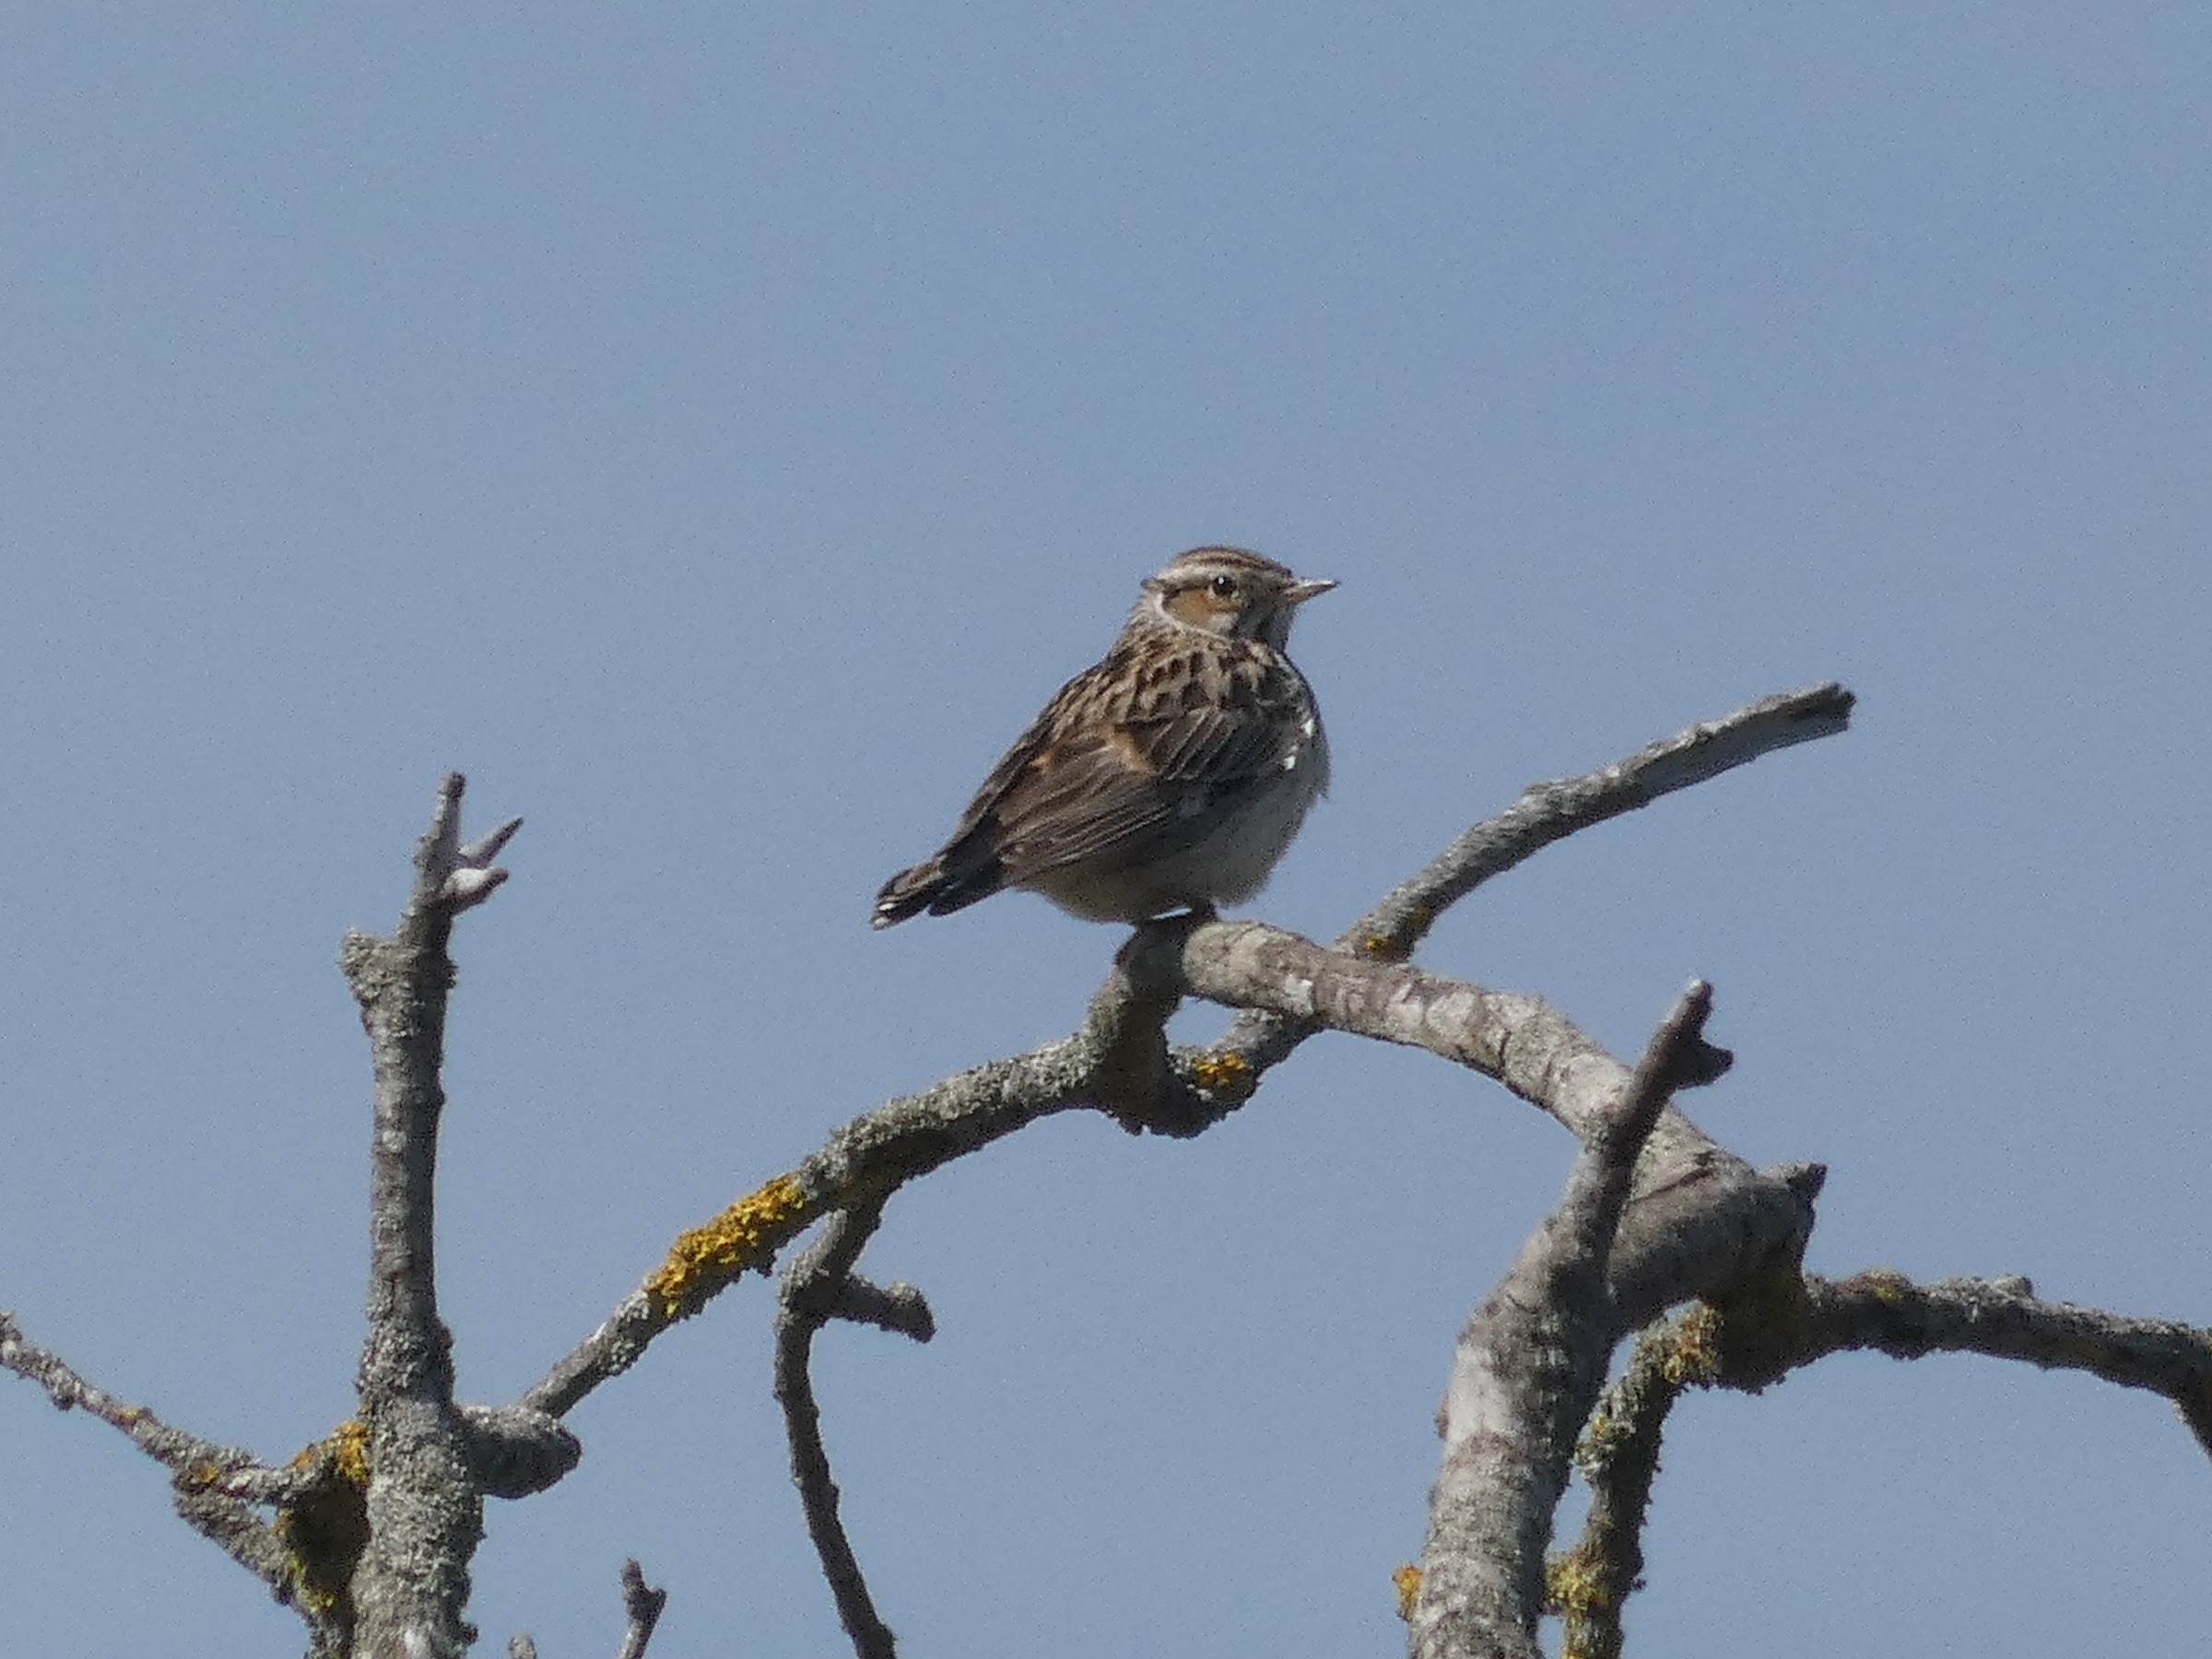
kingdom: Animalia
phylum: Chordata
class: Aves
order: Passeriformes
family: Alaudidae
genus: Lullula
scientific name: Lullula arborea
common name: Hedelærke
